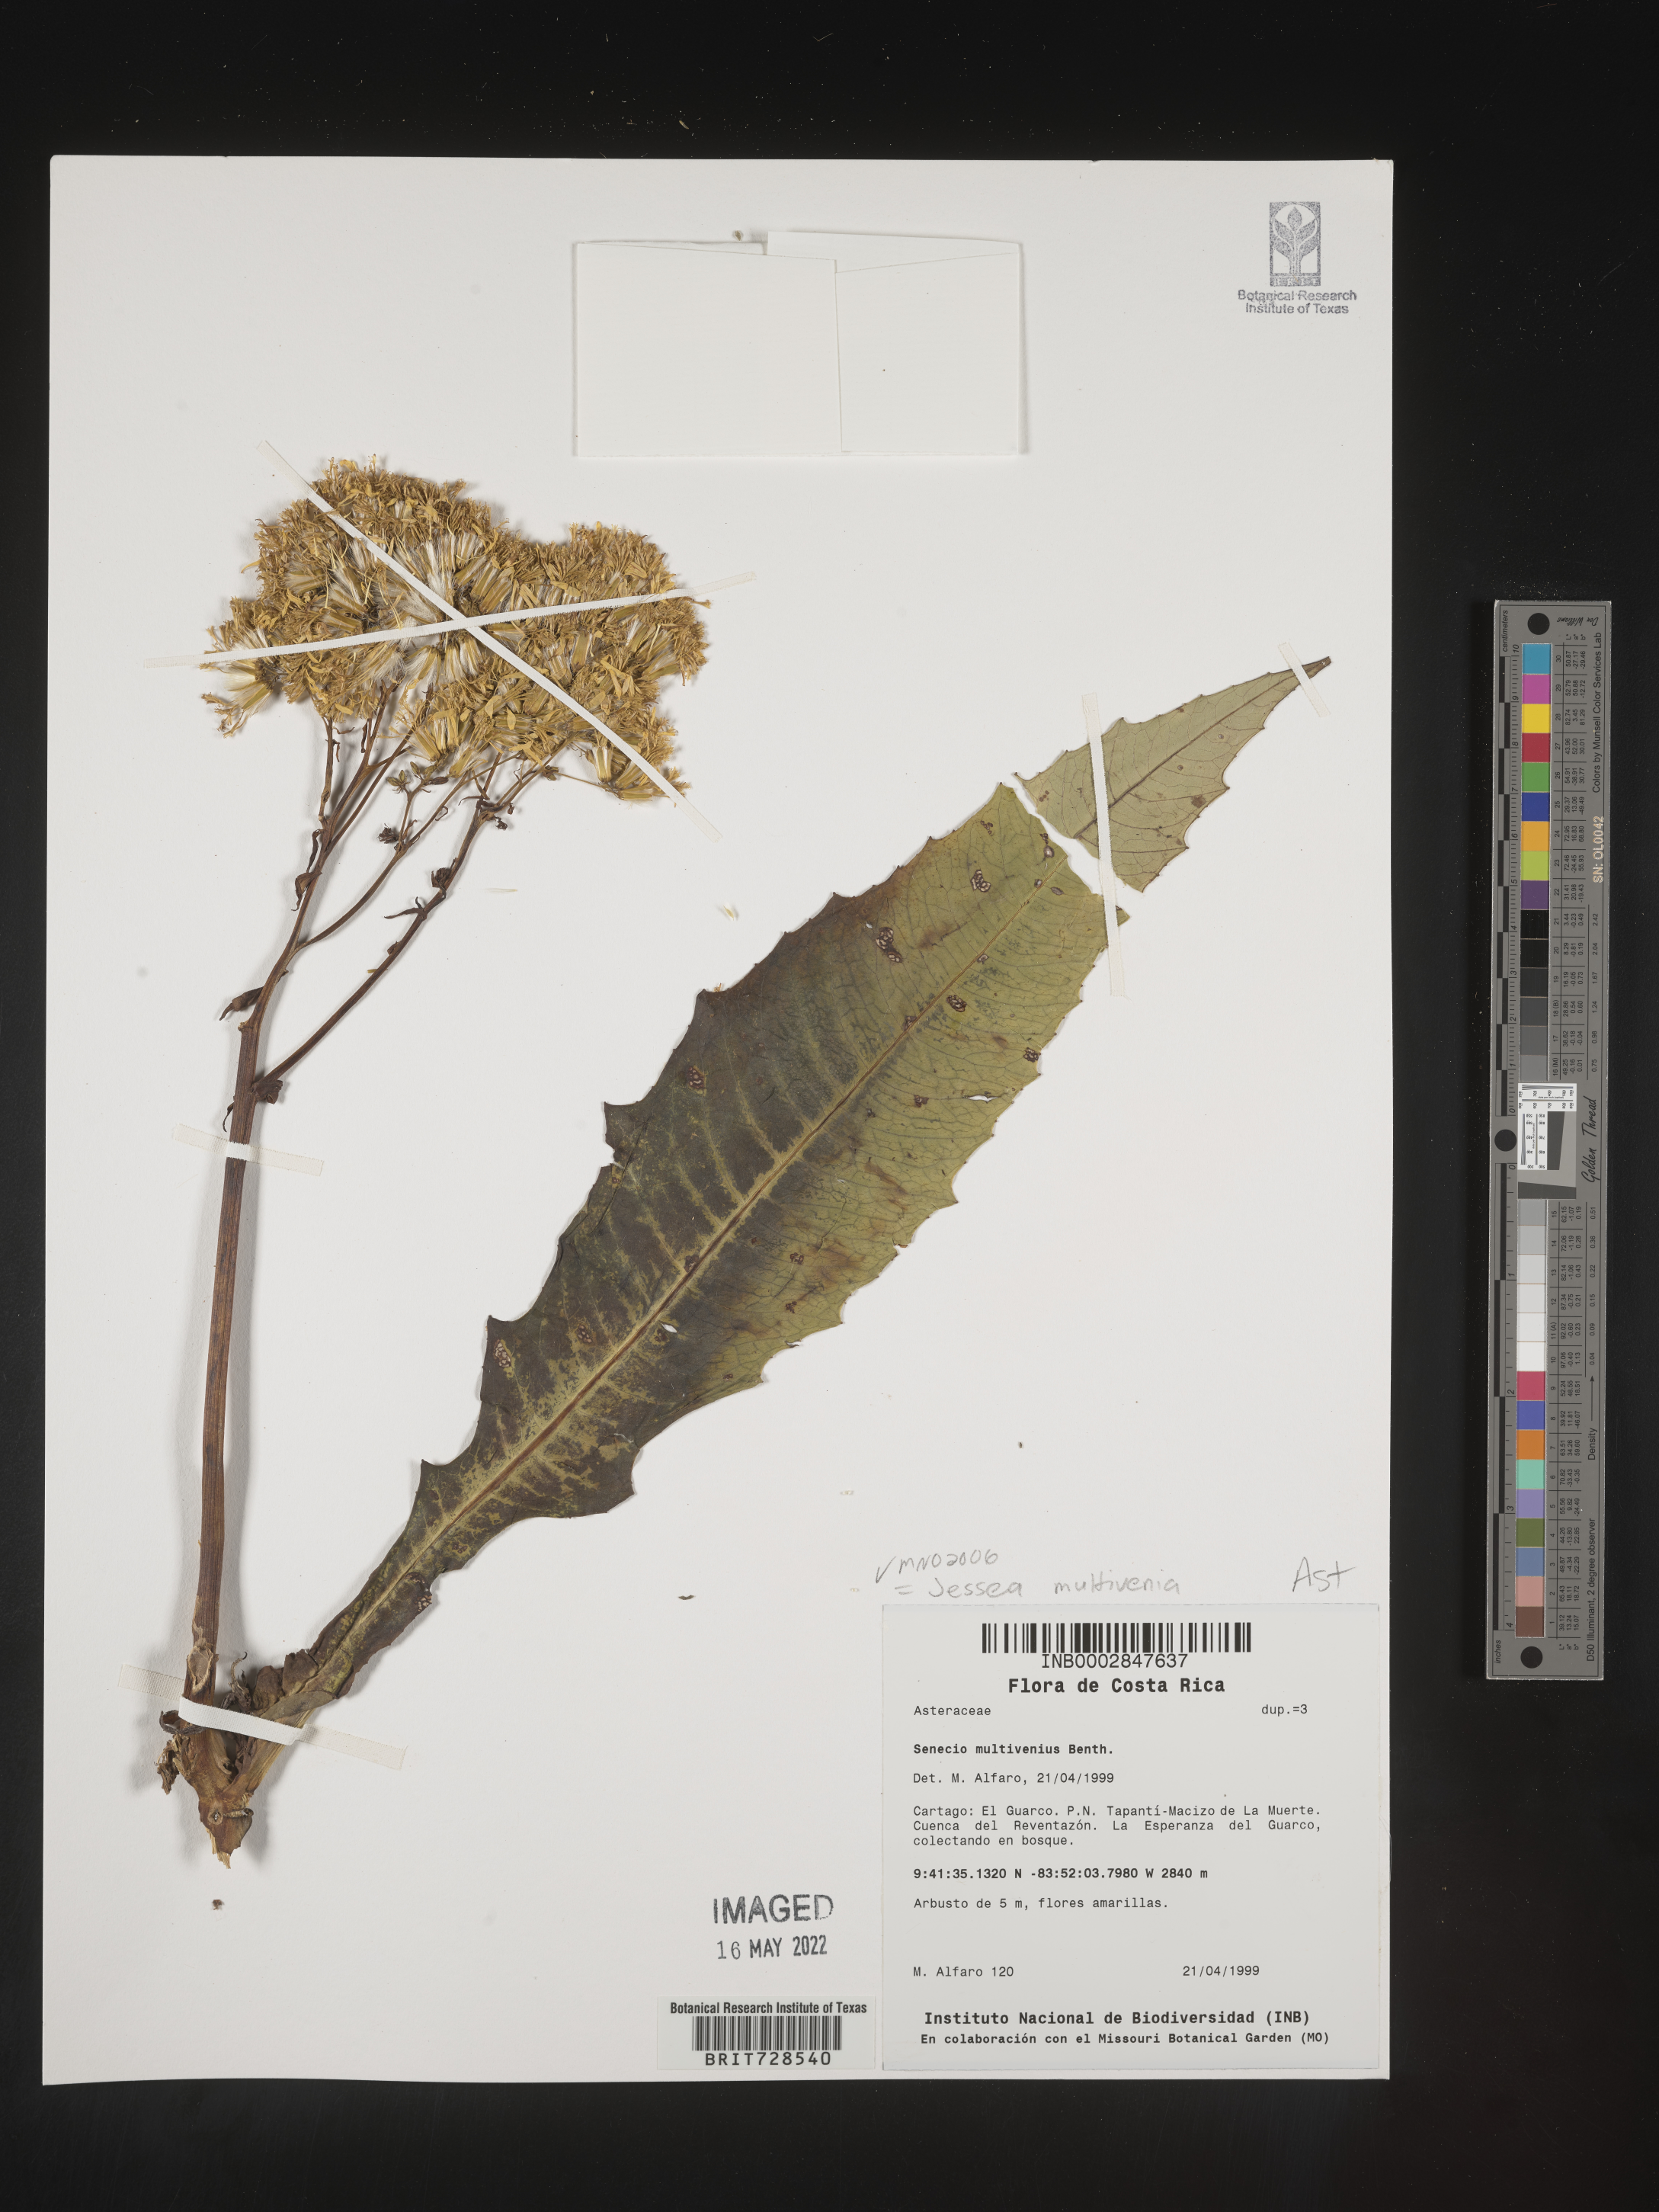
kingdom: Plantae
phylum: Tracheophyta
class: Magnoliopsida
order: Asterales
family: Asteraceae
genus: Jessea
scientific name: Jessea
